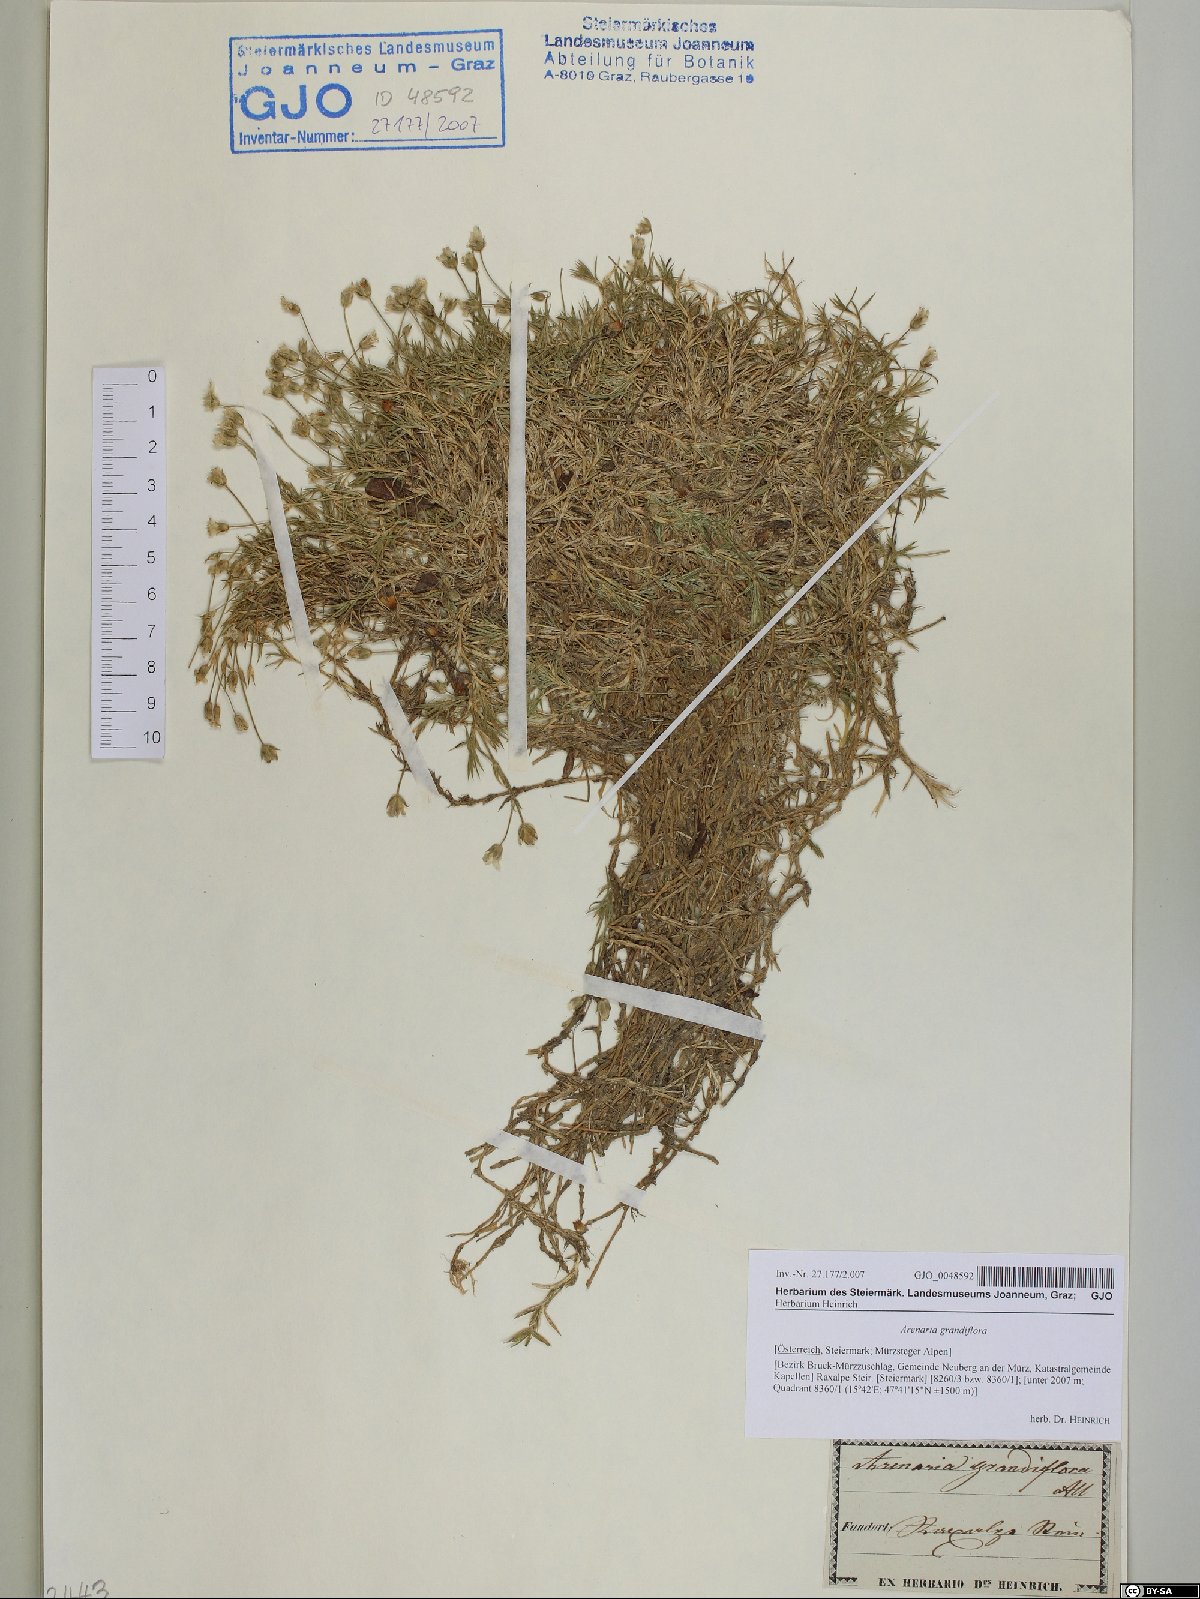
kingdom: Plantae
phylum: Tracheophyta
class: Magnoliopsida
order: Caryophyllales
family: Caryophyllaceae
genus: Arenaria
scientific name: Arenaria grandiflora
